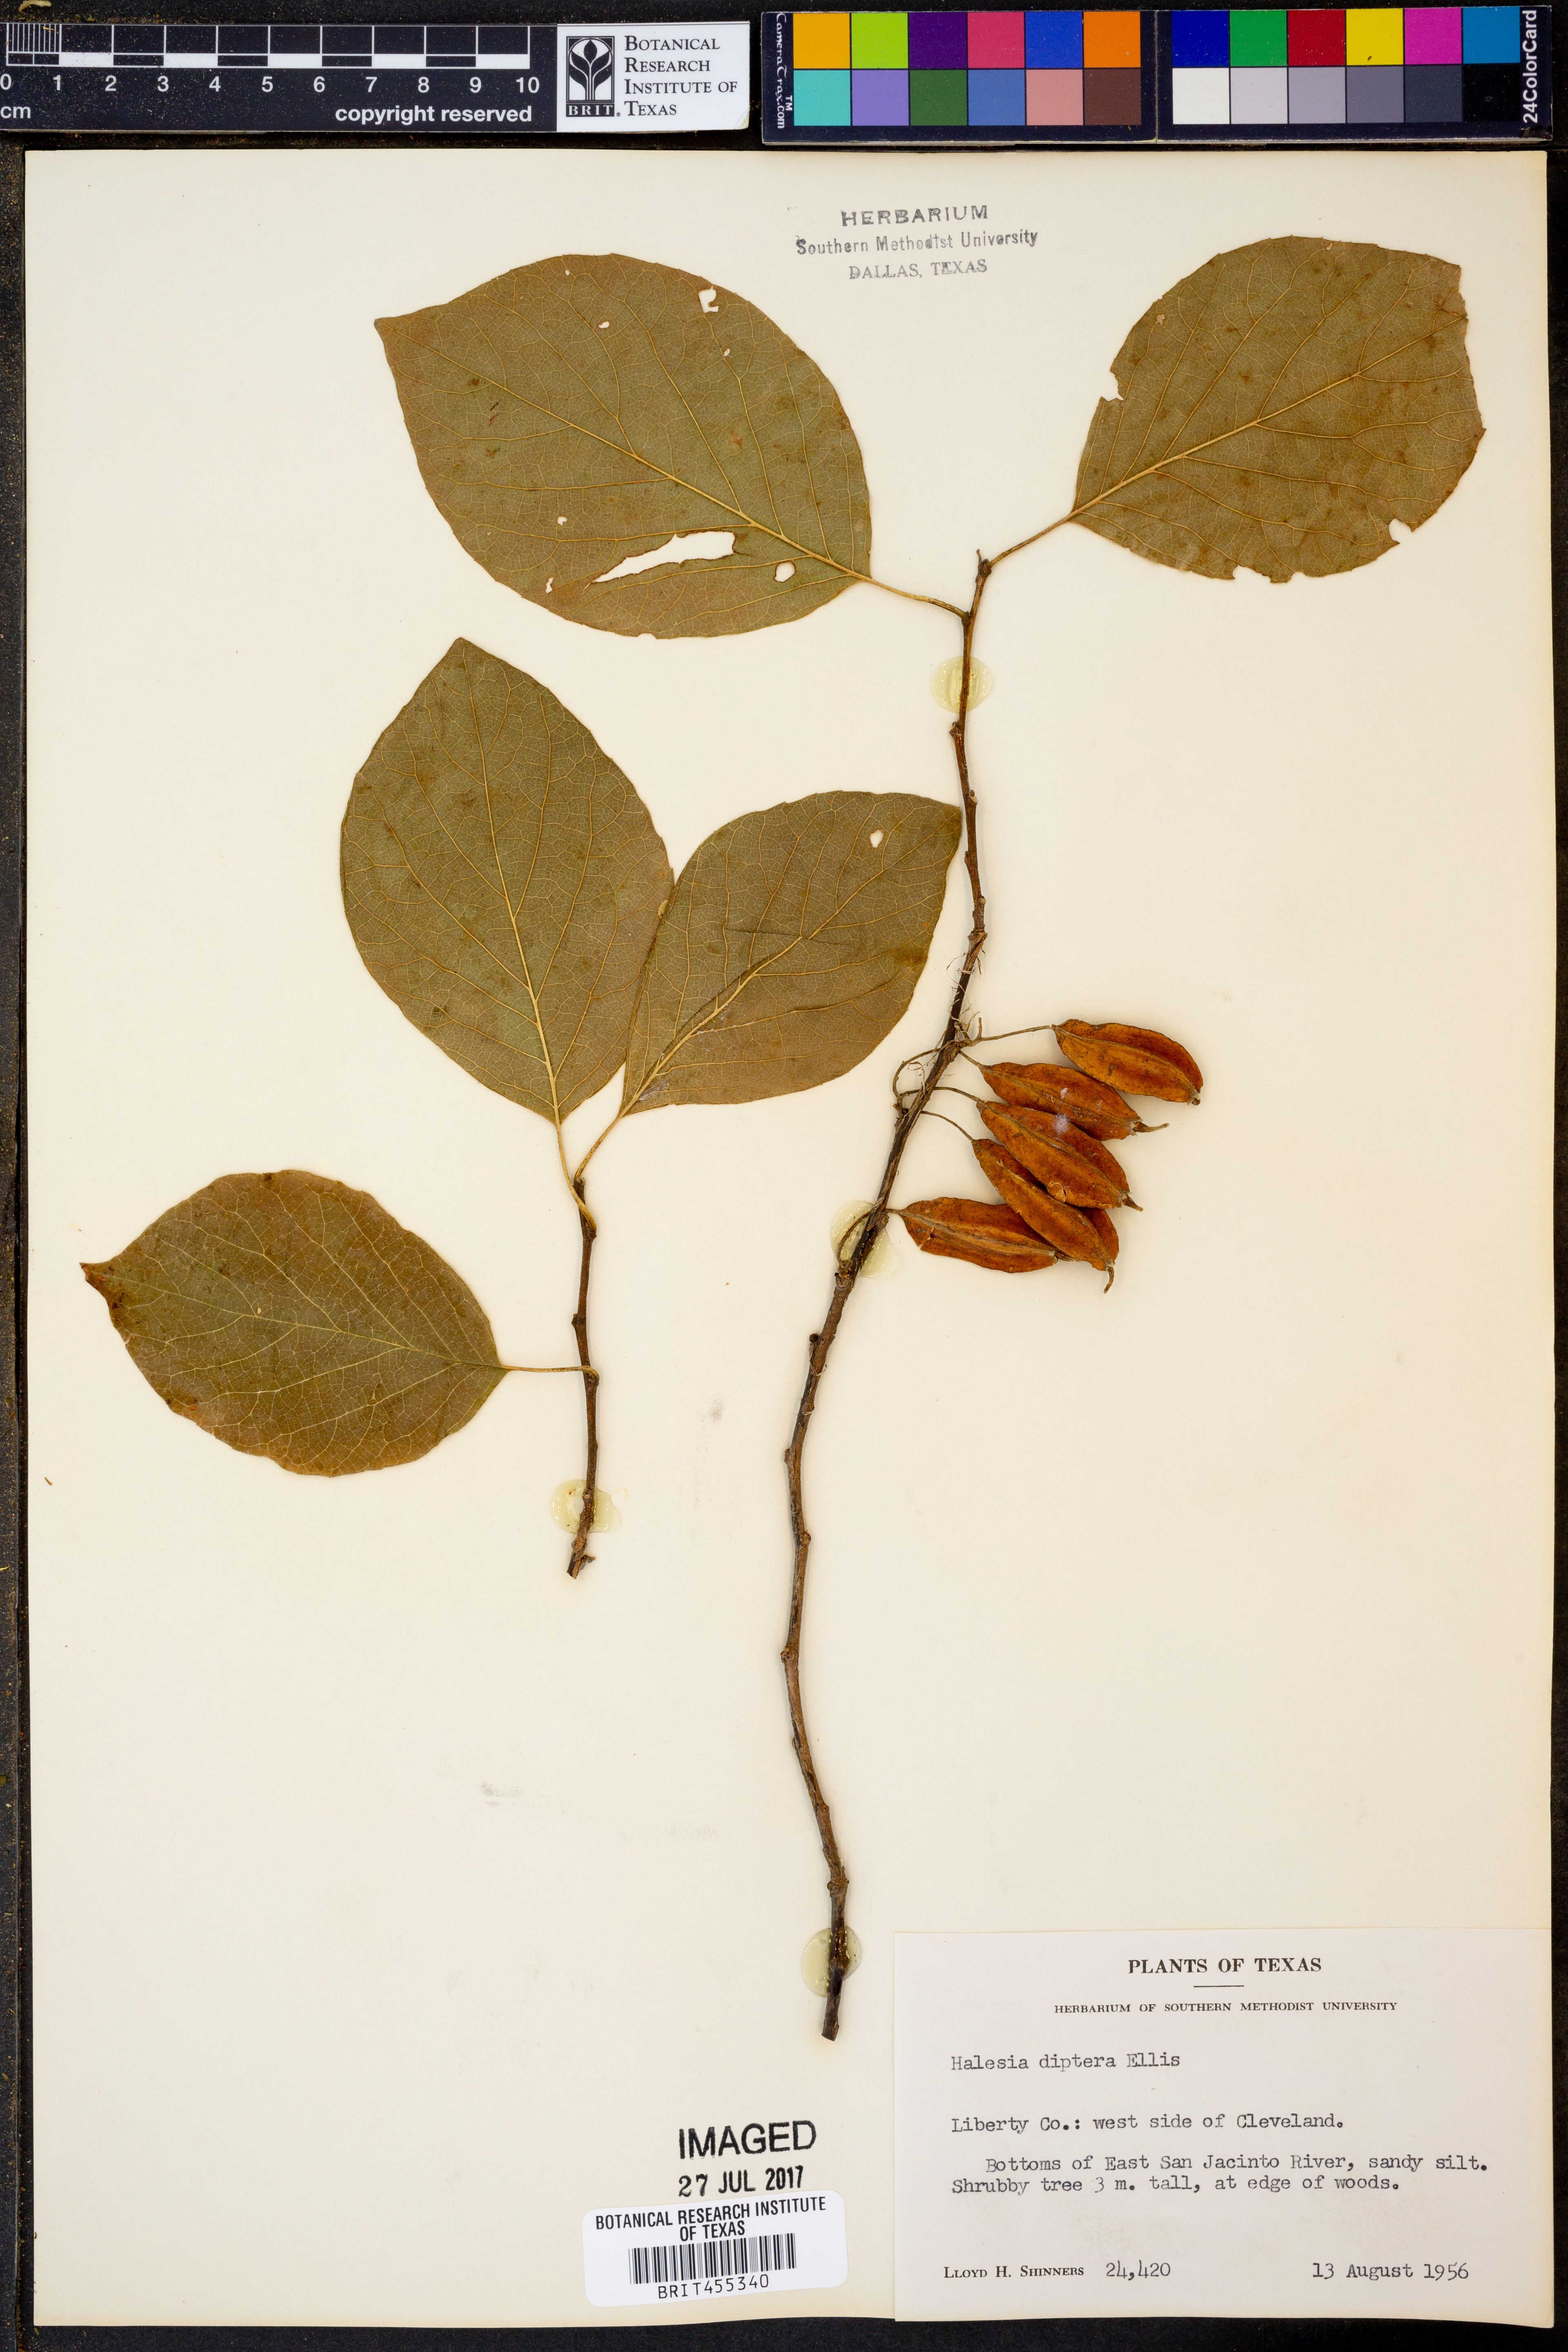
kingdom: Plantae
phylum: Tracheophyta
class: Magnoliopsida
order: Ericales
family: Styracaceae
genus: Halesia
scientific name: Halesia diptera
